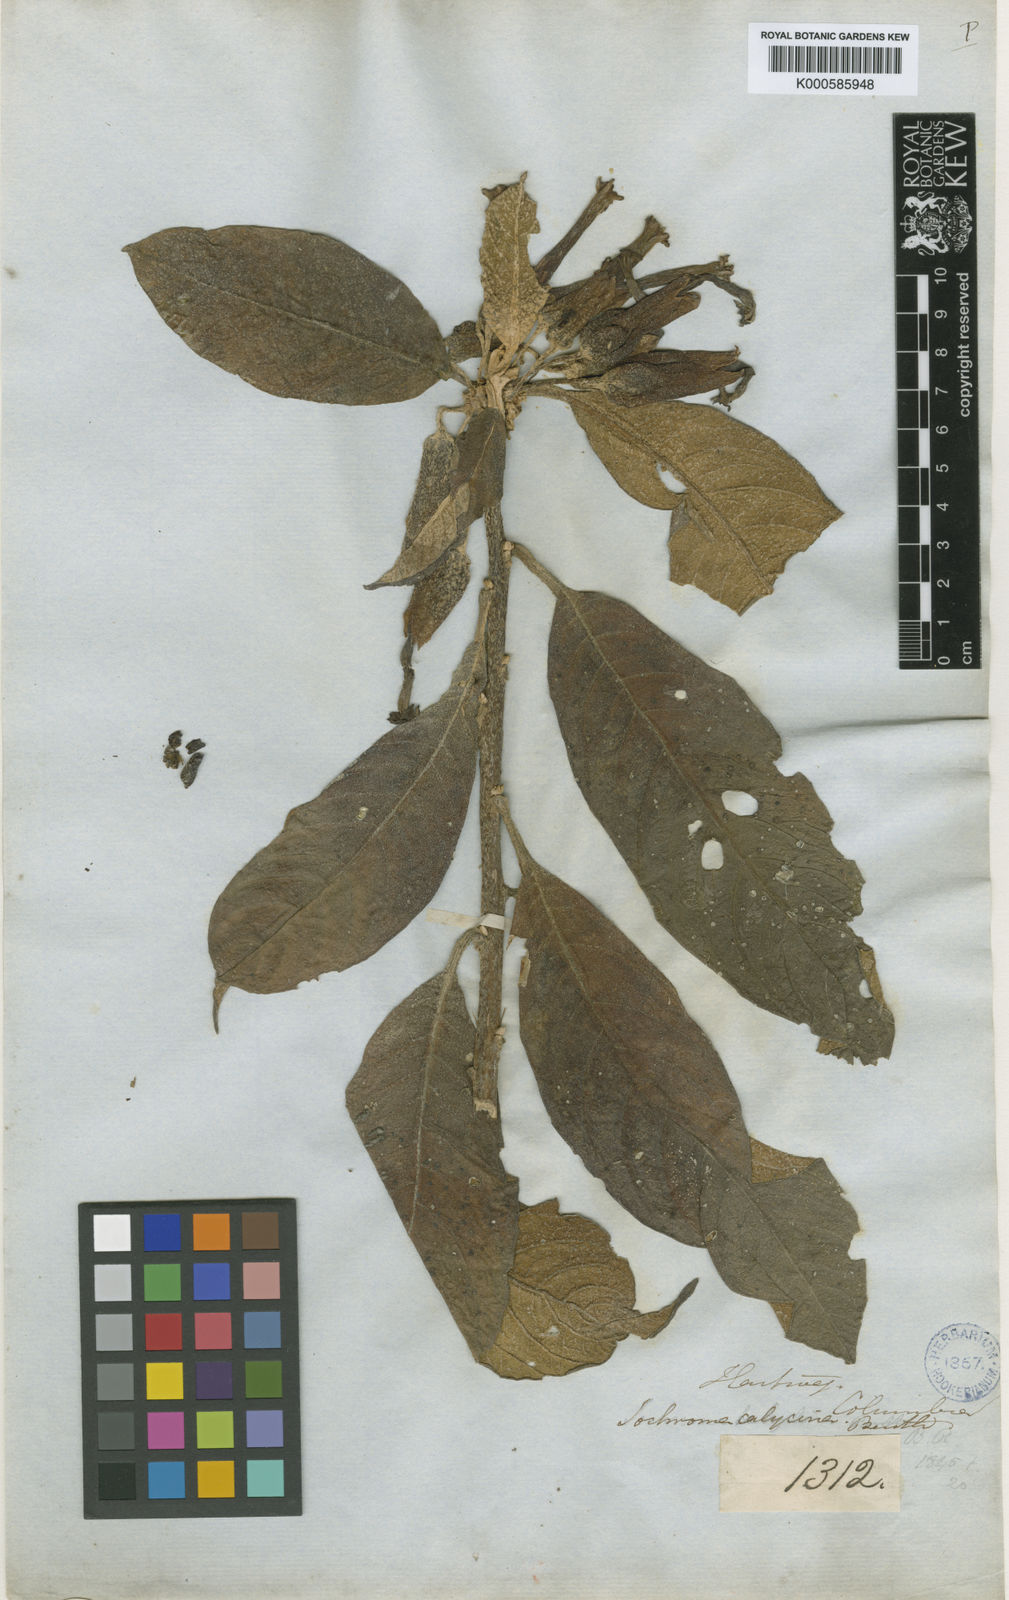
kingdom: Plantae
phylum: Tracheophyta
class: Magnoliopsida
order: Solanales
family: Solanaceae
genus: Iochroma
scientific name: Iochroma calycinum
